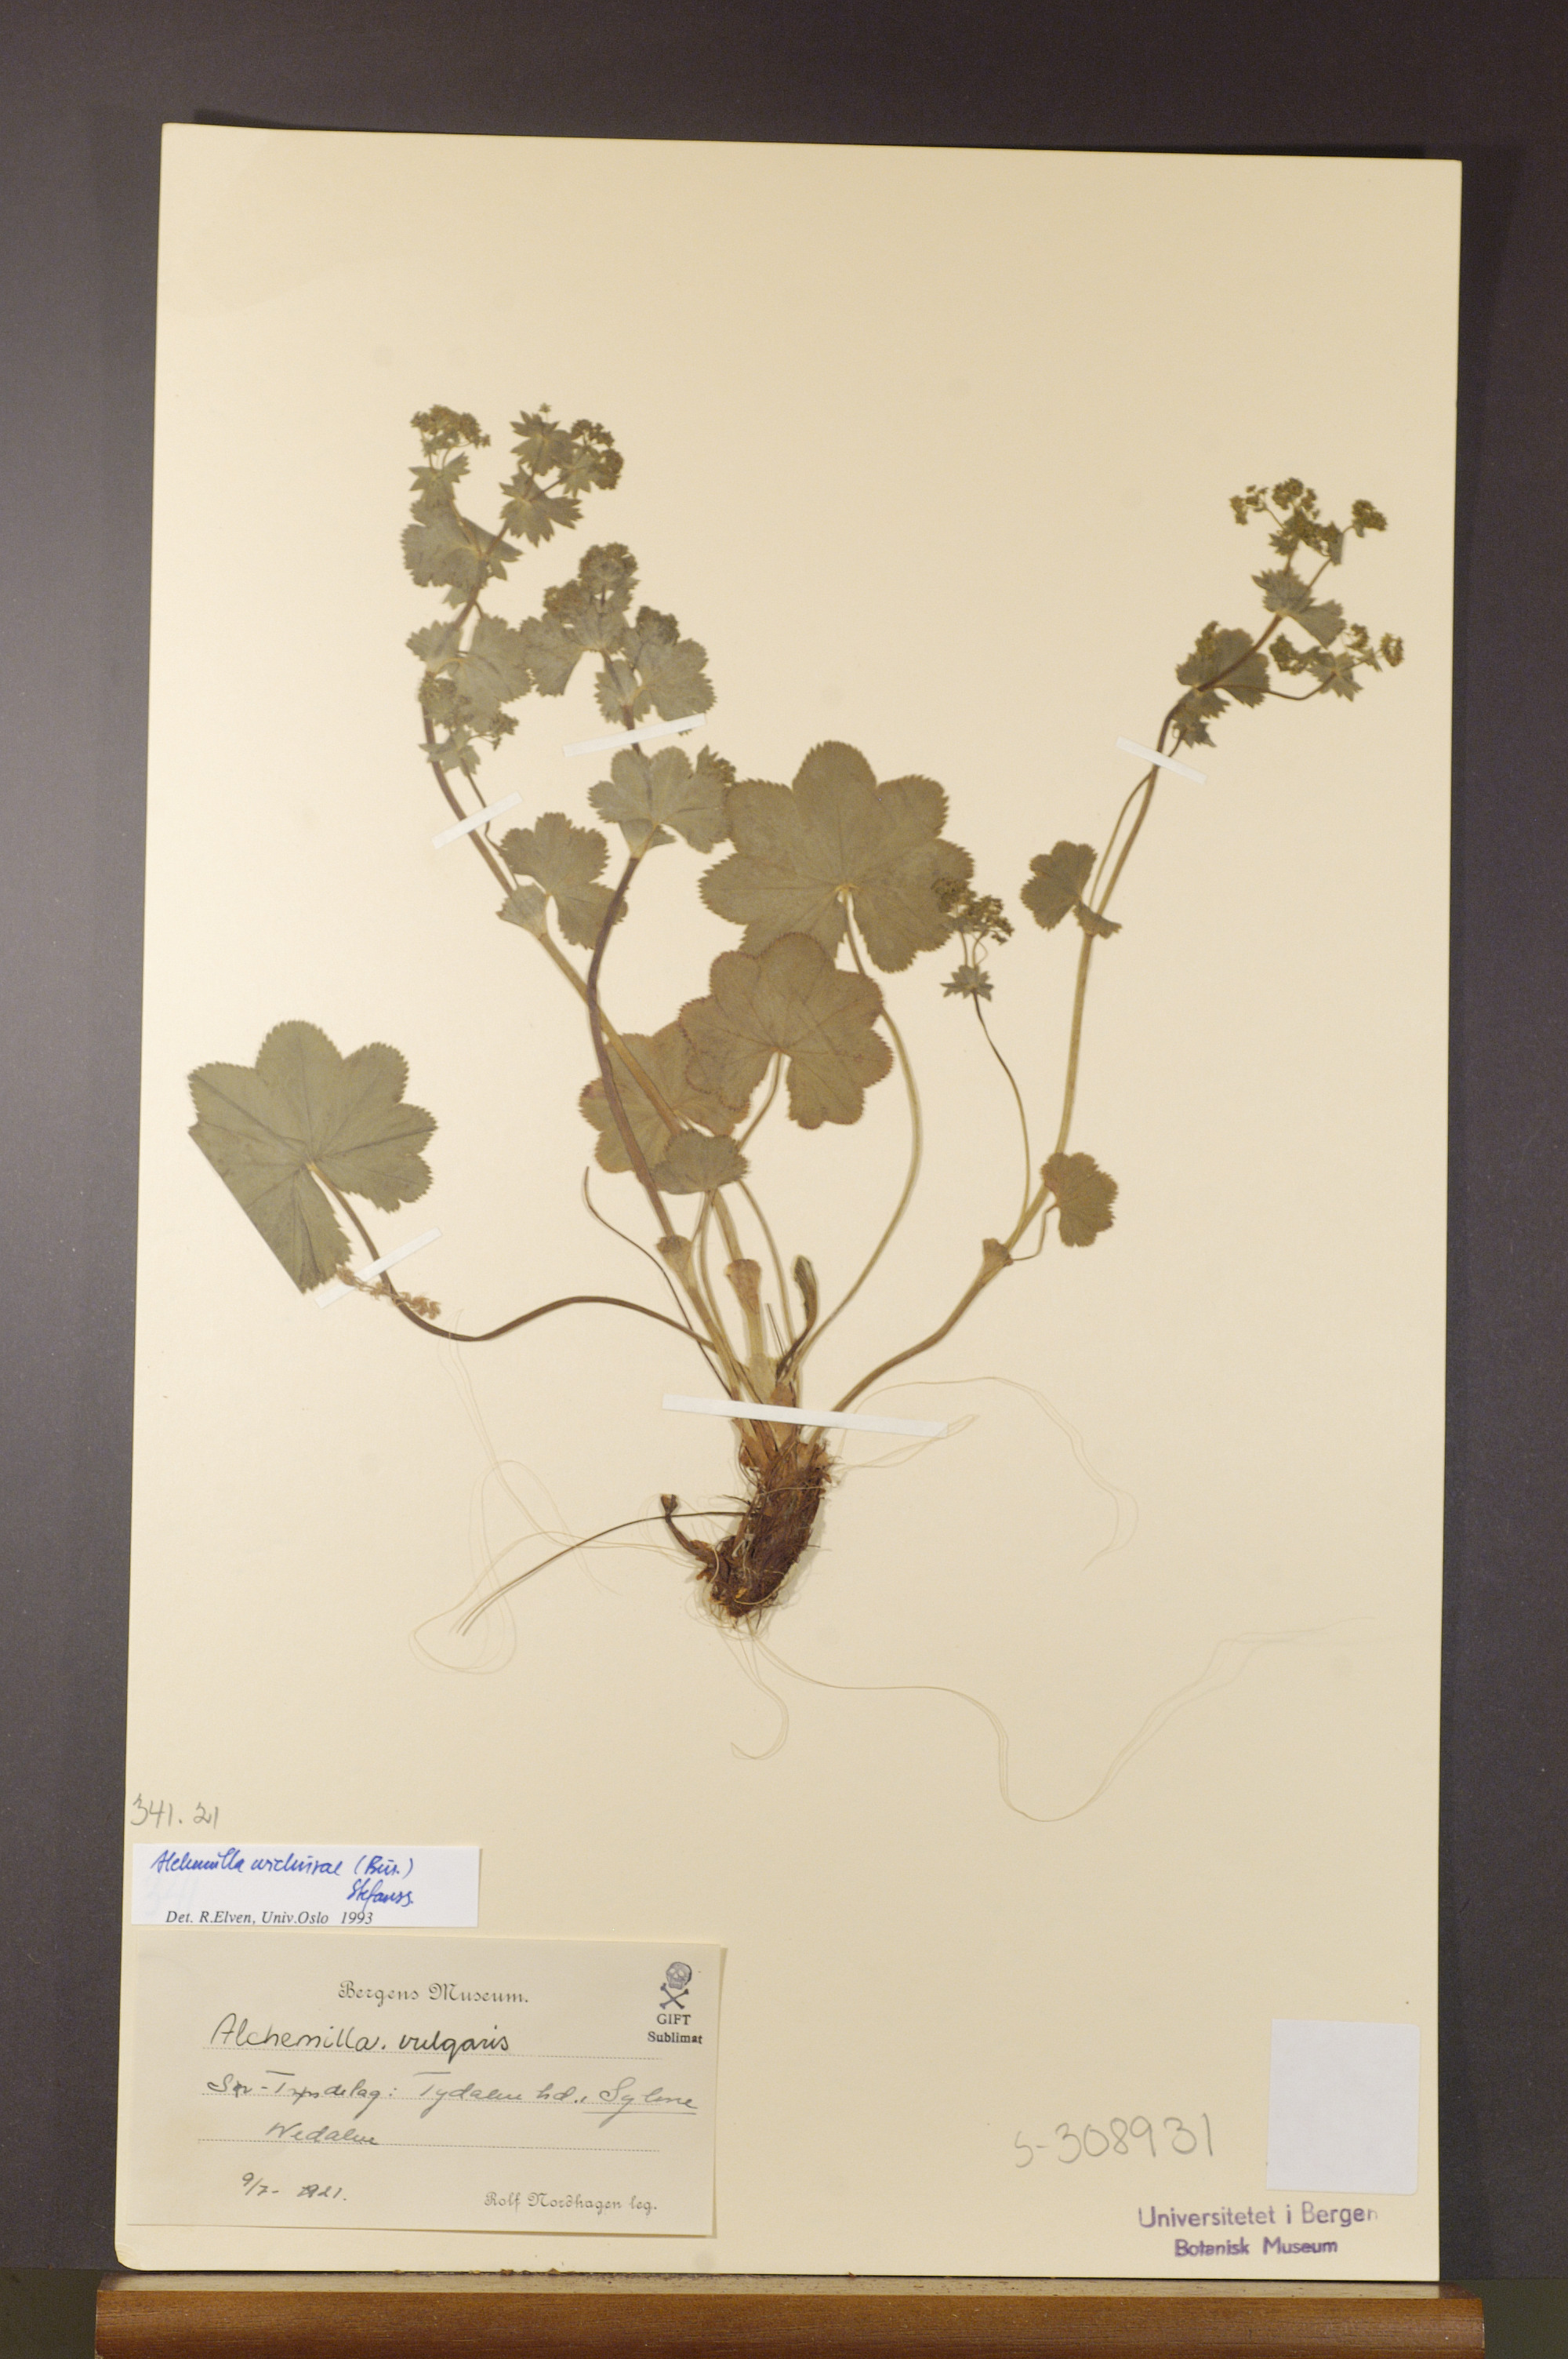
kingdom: Plantae
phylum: Tracheophyta
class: Magnoliopsida
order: Rosales
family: Rosaceae
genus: Alchemilla
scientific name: Alchemilla wichurae
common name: Rock lady's mantle
